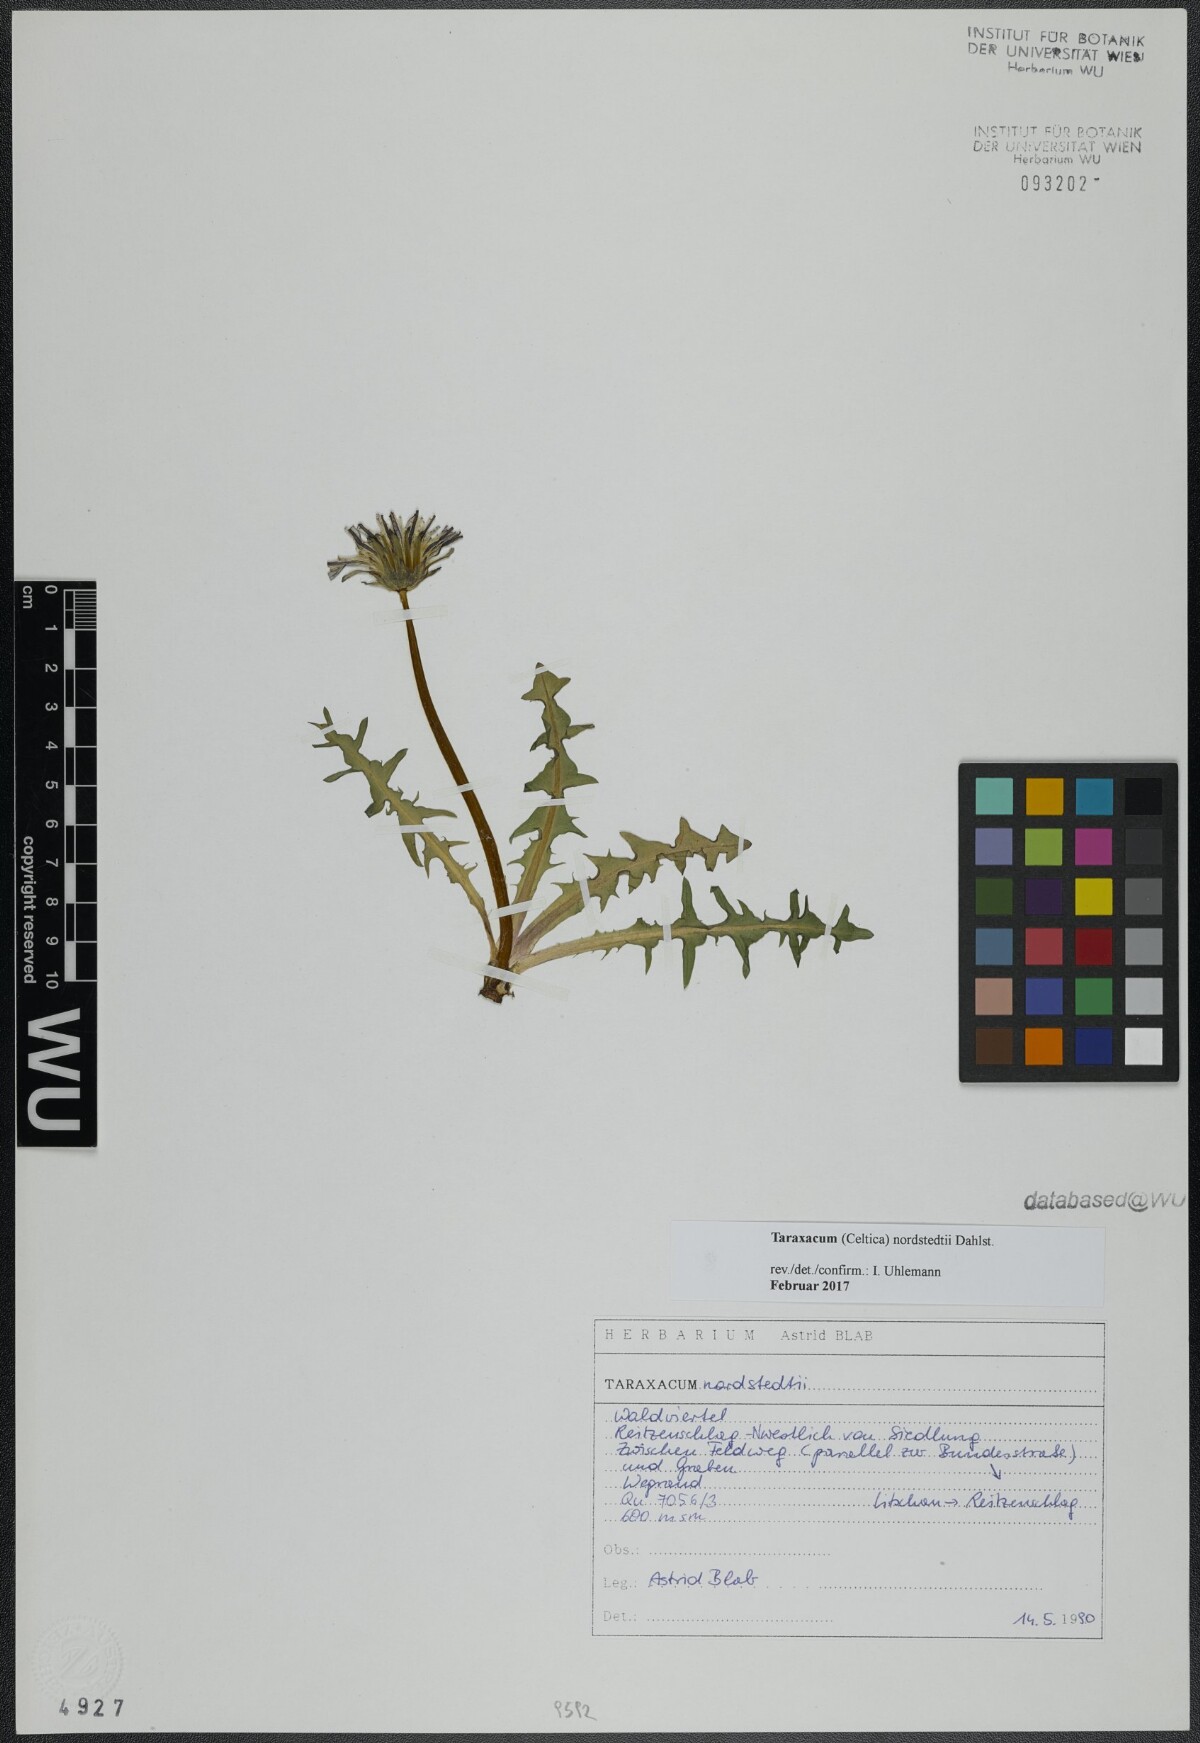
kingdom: Plantae
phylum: Tracheophyta
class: Magnoliopsida
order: Asterales
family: Asteraceae
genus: Taraxacum
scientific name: Taraxacum nordstedtii
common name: Nordstedt's dandelion
